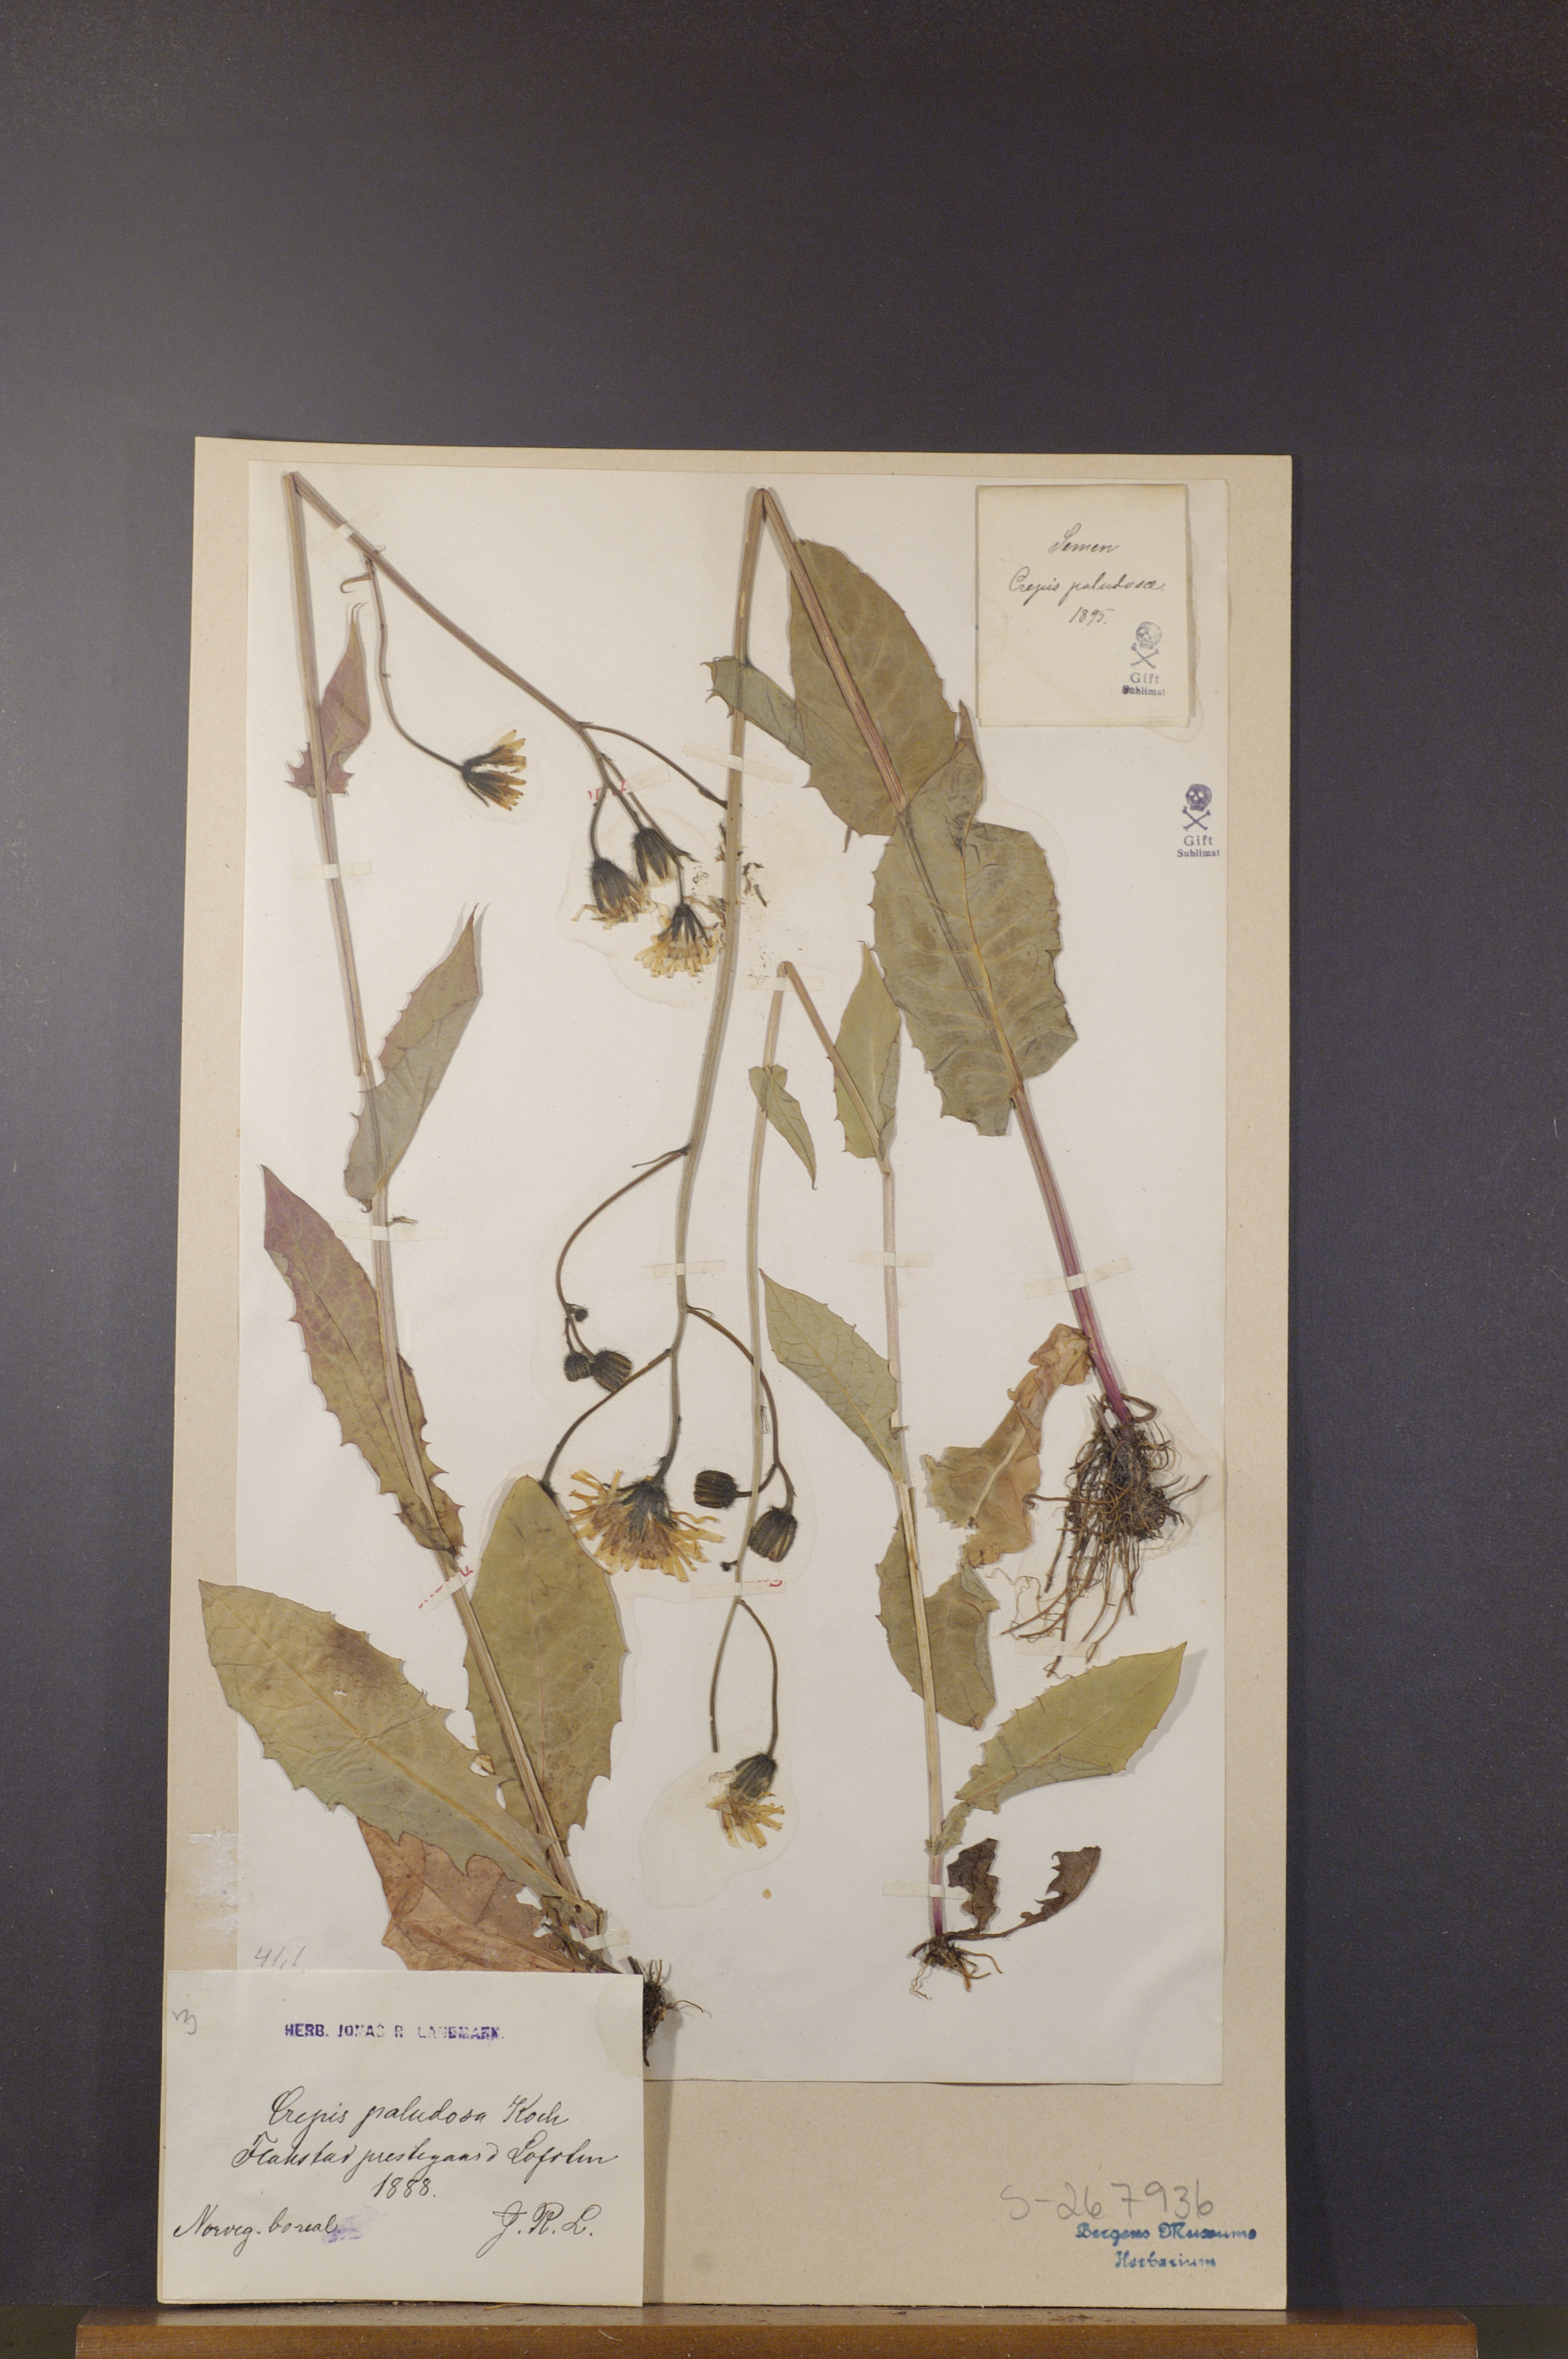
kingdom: Plantae
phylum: Tracheophyta
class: Magnoliopsida
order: Asterales
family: Asteraceae
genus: Crepis
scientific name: Crepis paludosa
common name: Marsh hawk's-beard
